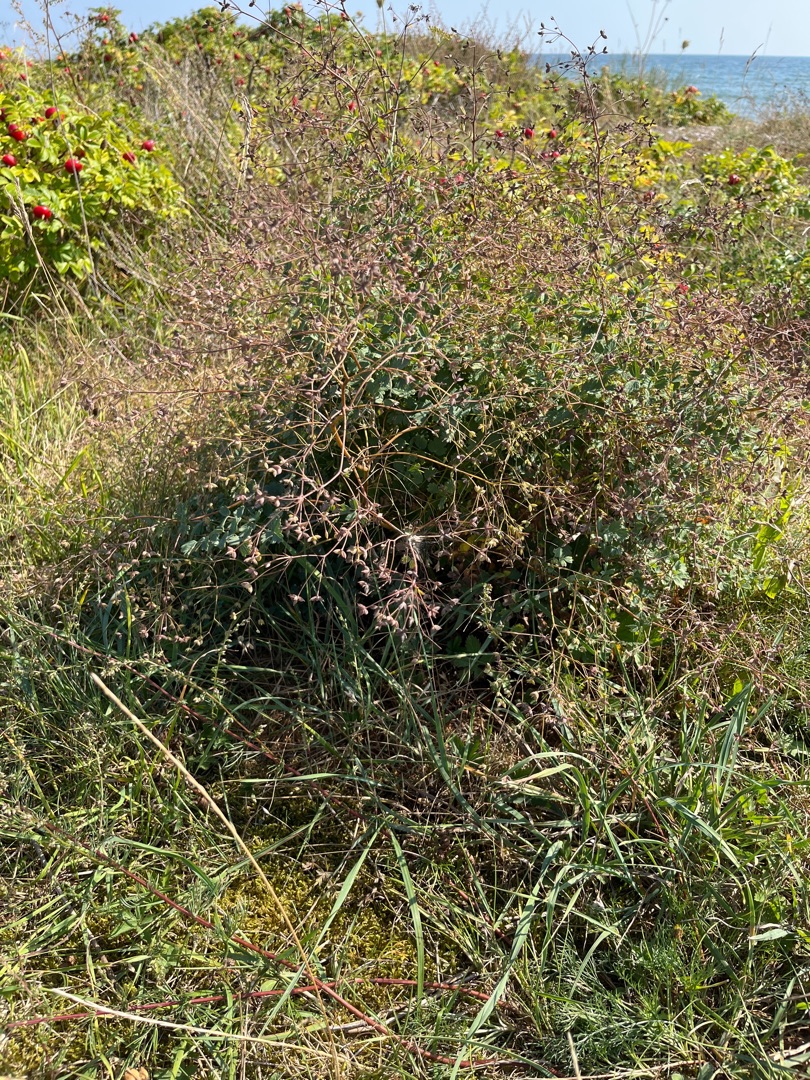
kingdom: Plantae
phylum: Tracheophyta
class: Magnoliopsida
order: Ranunculales
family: Ranunculaceae
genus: Thalictrum
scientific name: Thalictrum minus
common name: Liden frøstjerne
